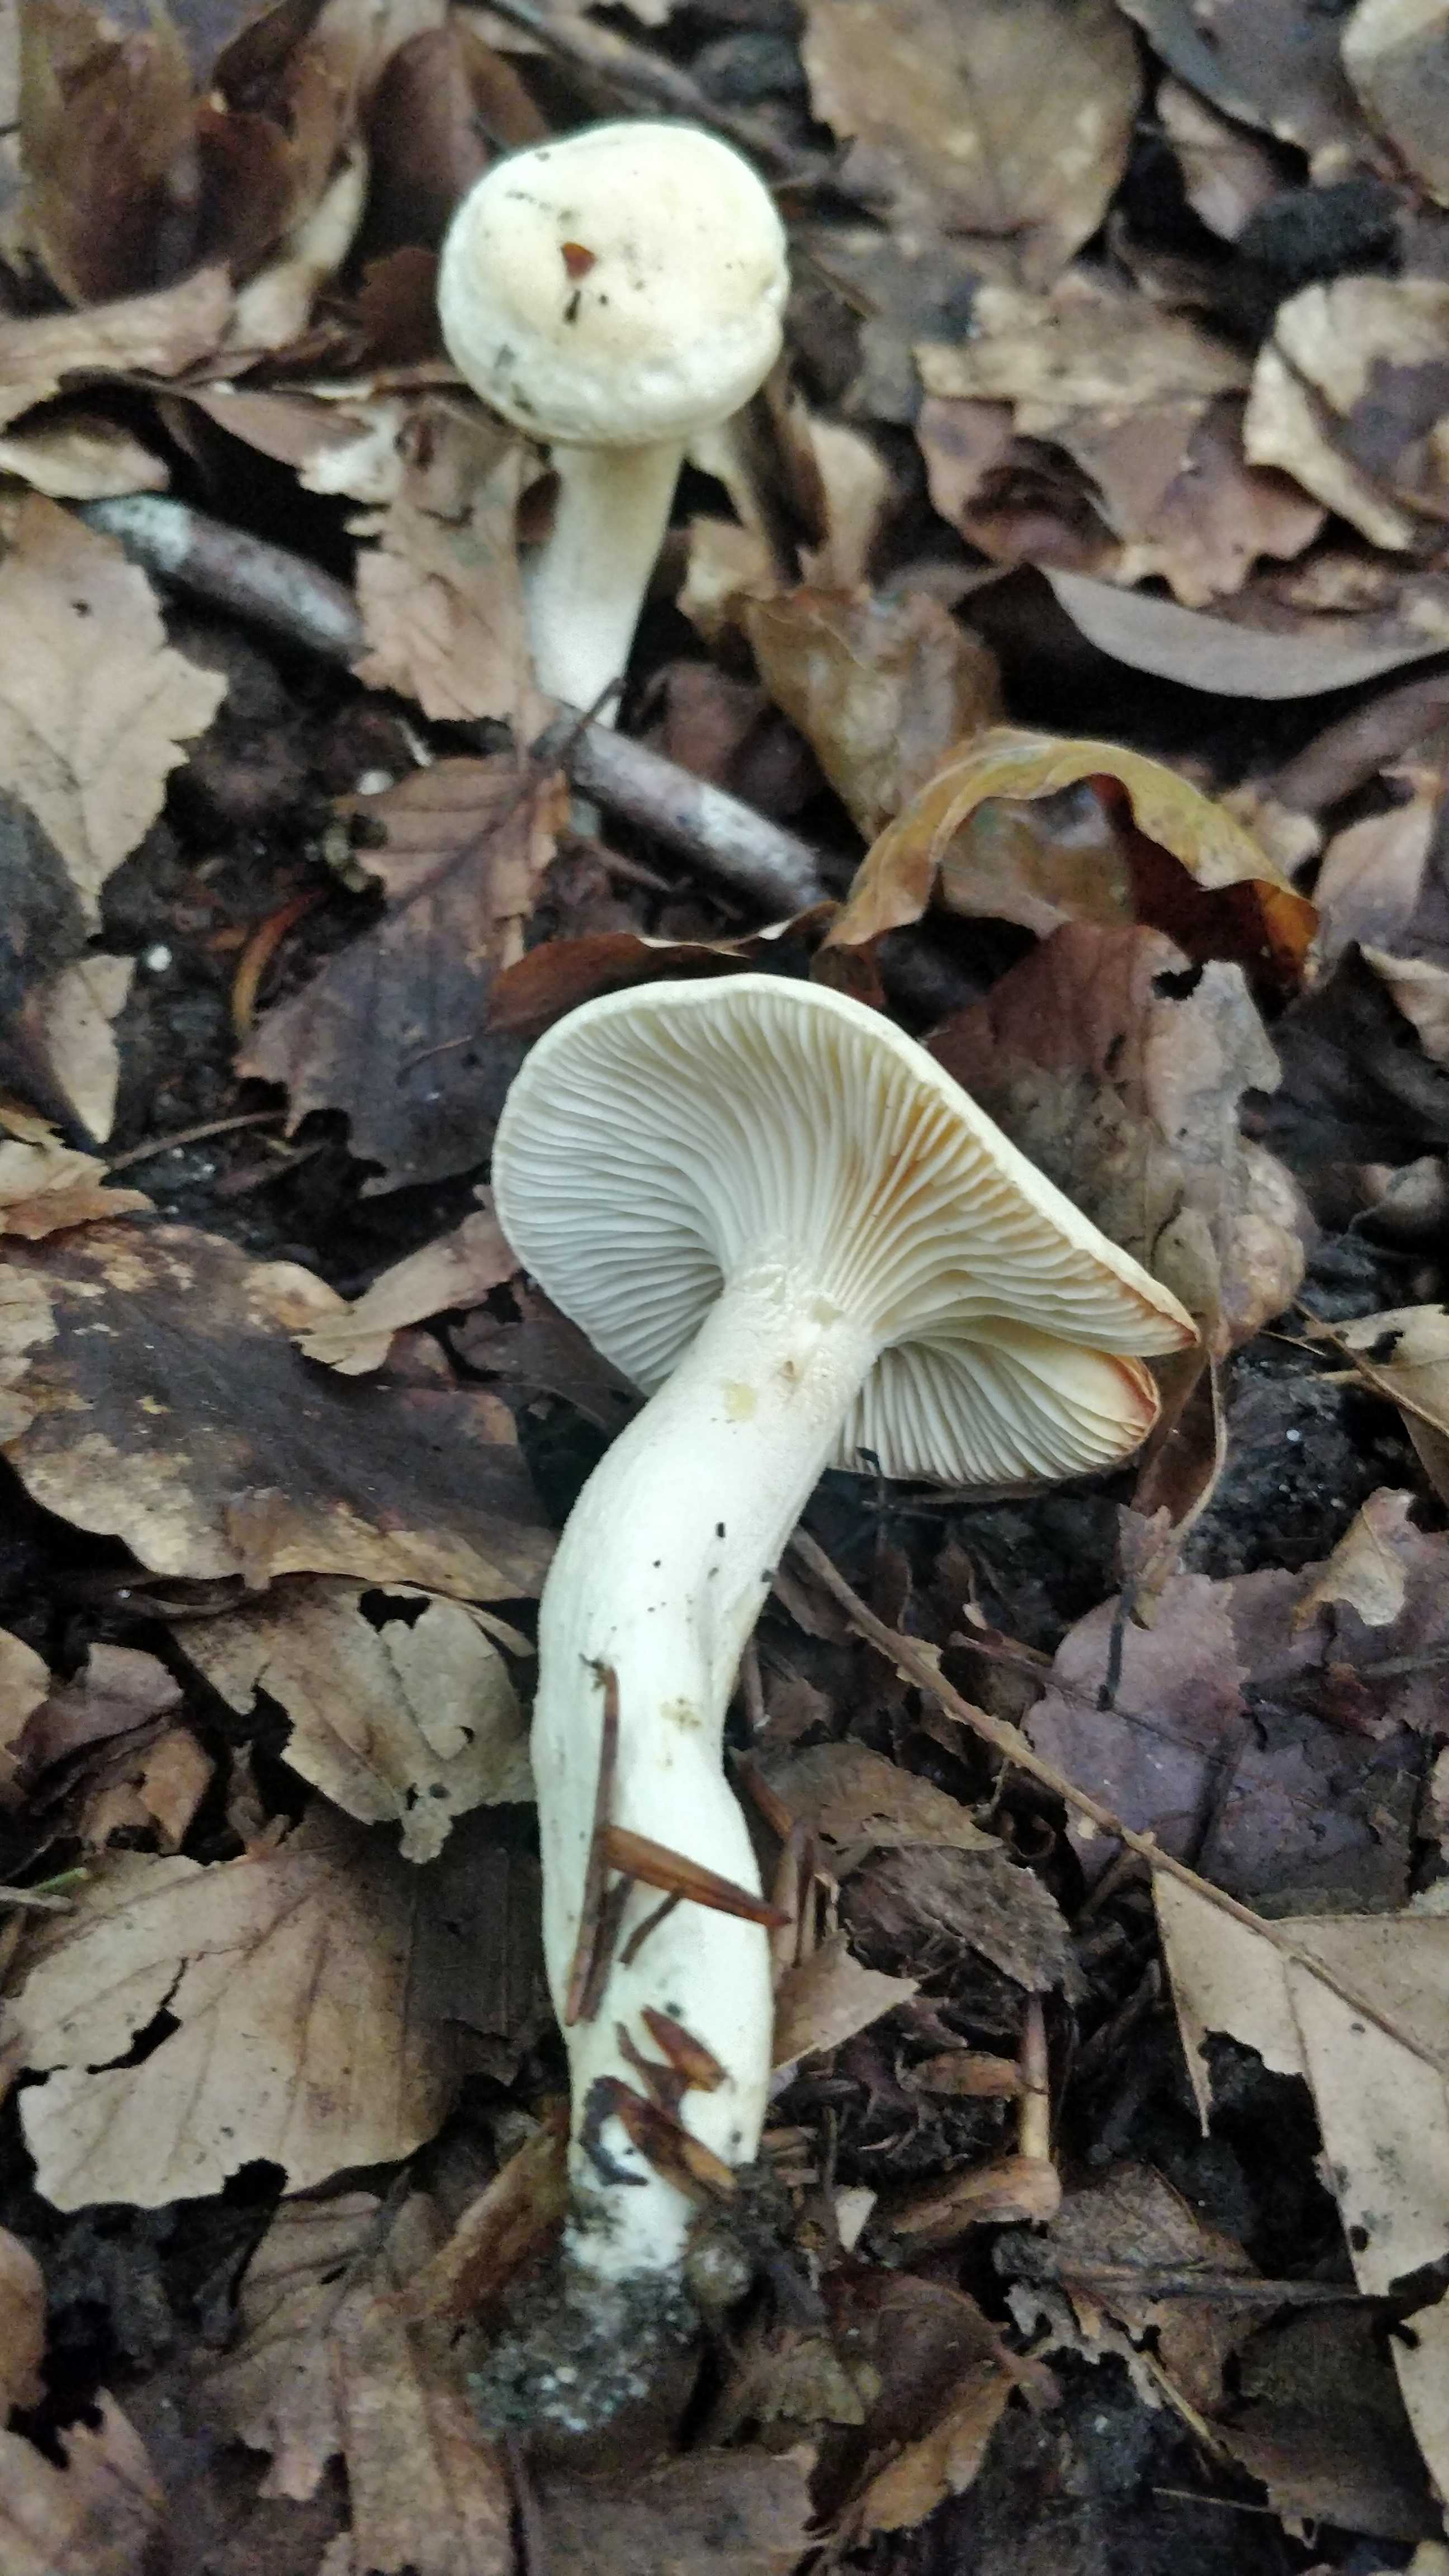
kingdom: Fungi
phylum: Basidiomycota
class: Agaricomycetes
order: Agaricales
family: Hygrophoraceae
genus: Hygrophorus
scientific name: Hygrophorus
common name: sneglehat
